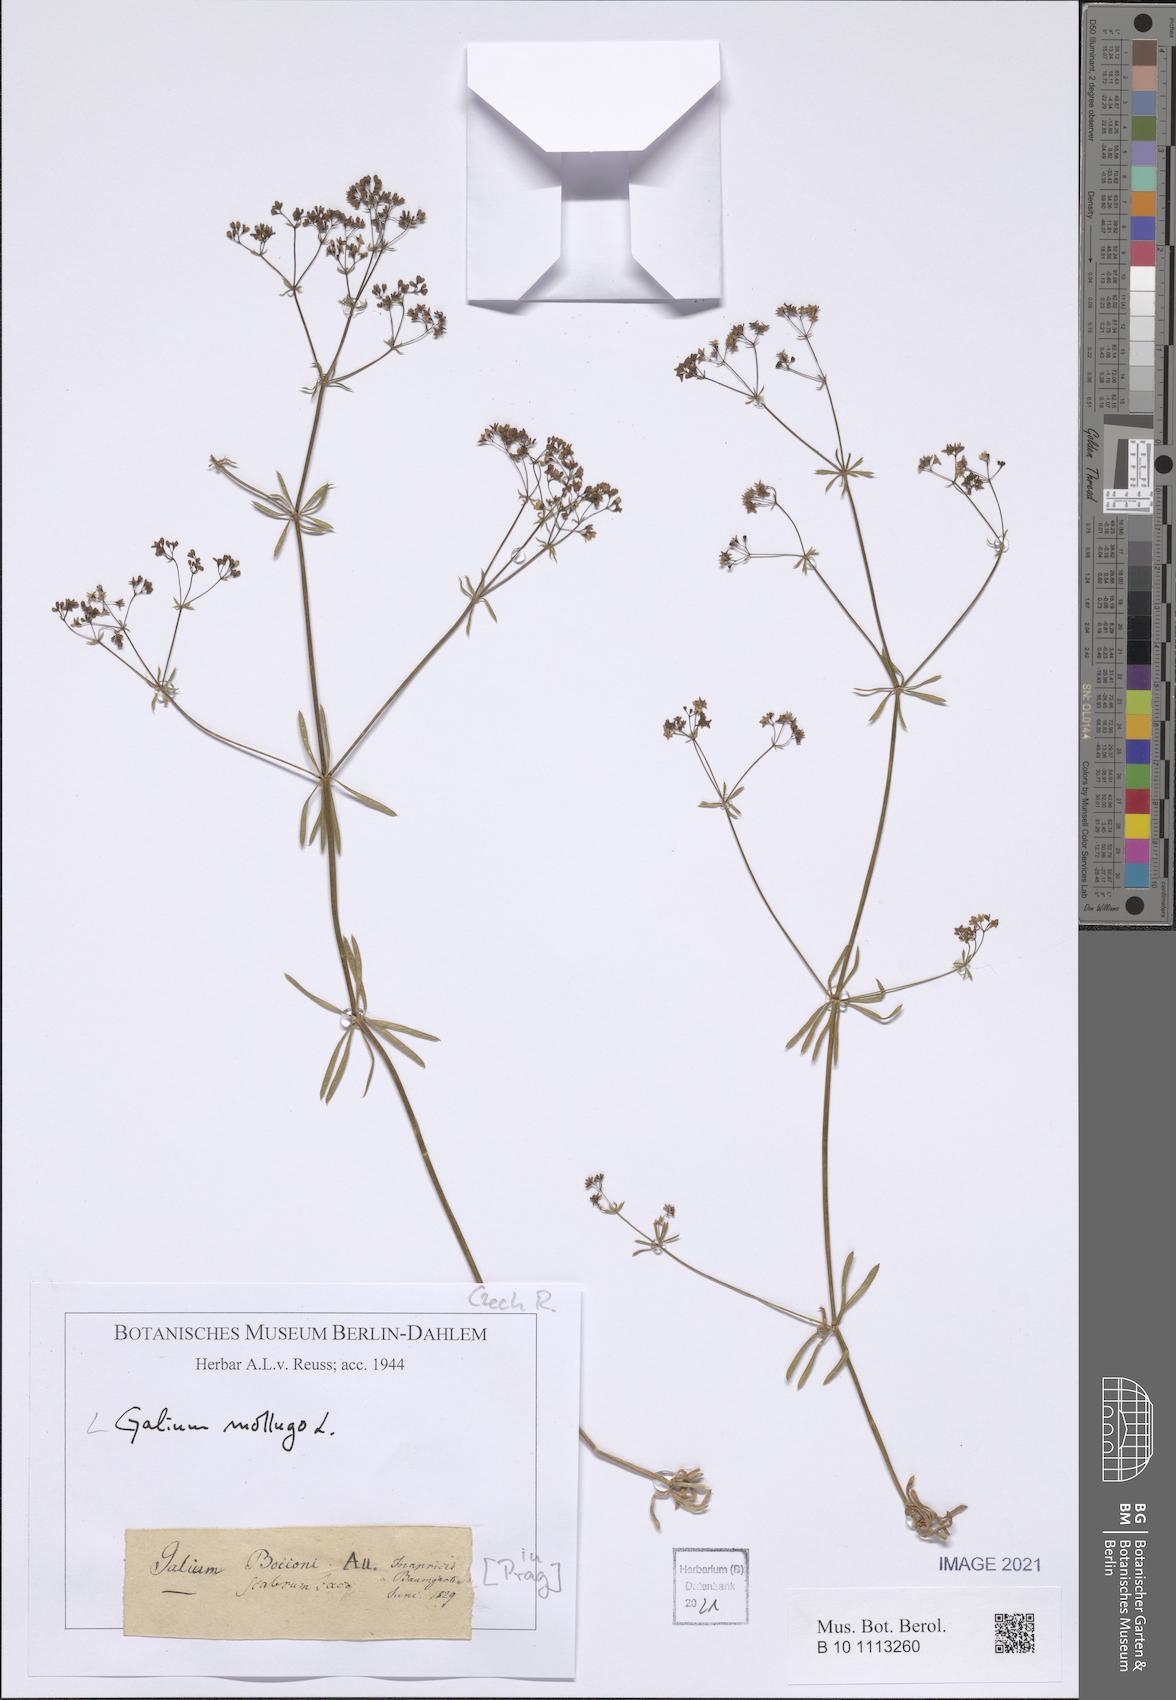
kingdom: Plantae
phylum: Tracheophyta
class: Magnoliopsida
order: Gentianales
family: Rubiaceae
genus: Galium
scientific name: Galium mollugo
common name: Hedge bedstraw
